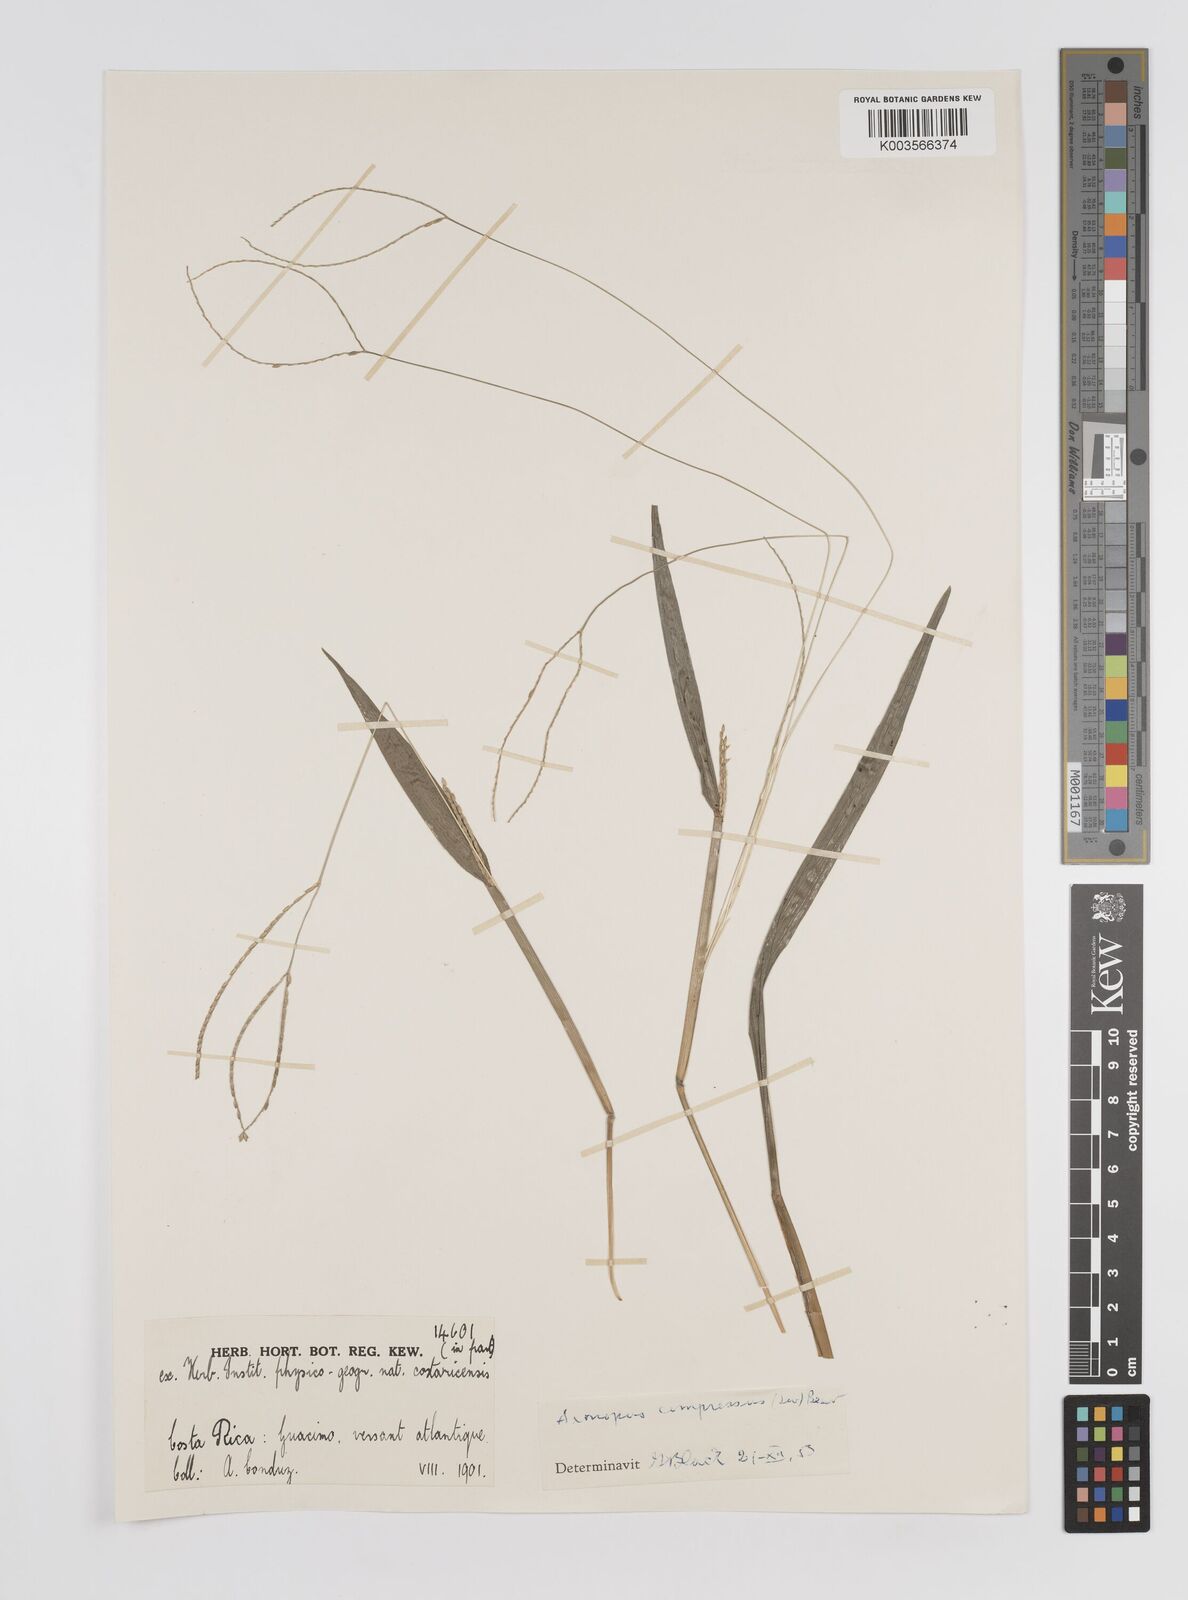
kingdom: Plantae
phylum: Tracheophyta
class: Liliopsida
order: Poales
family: Poaceae
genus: Axonopus
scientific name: Axonopus compressus
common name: American carpet grass
